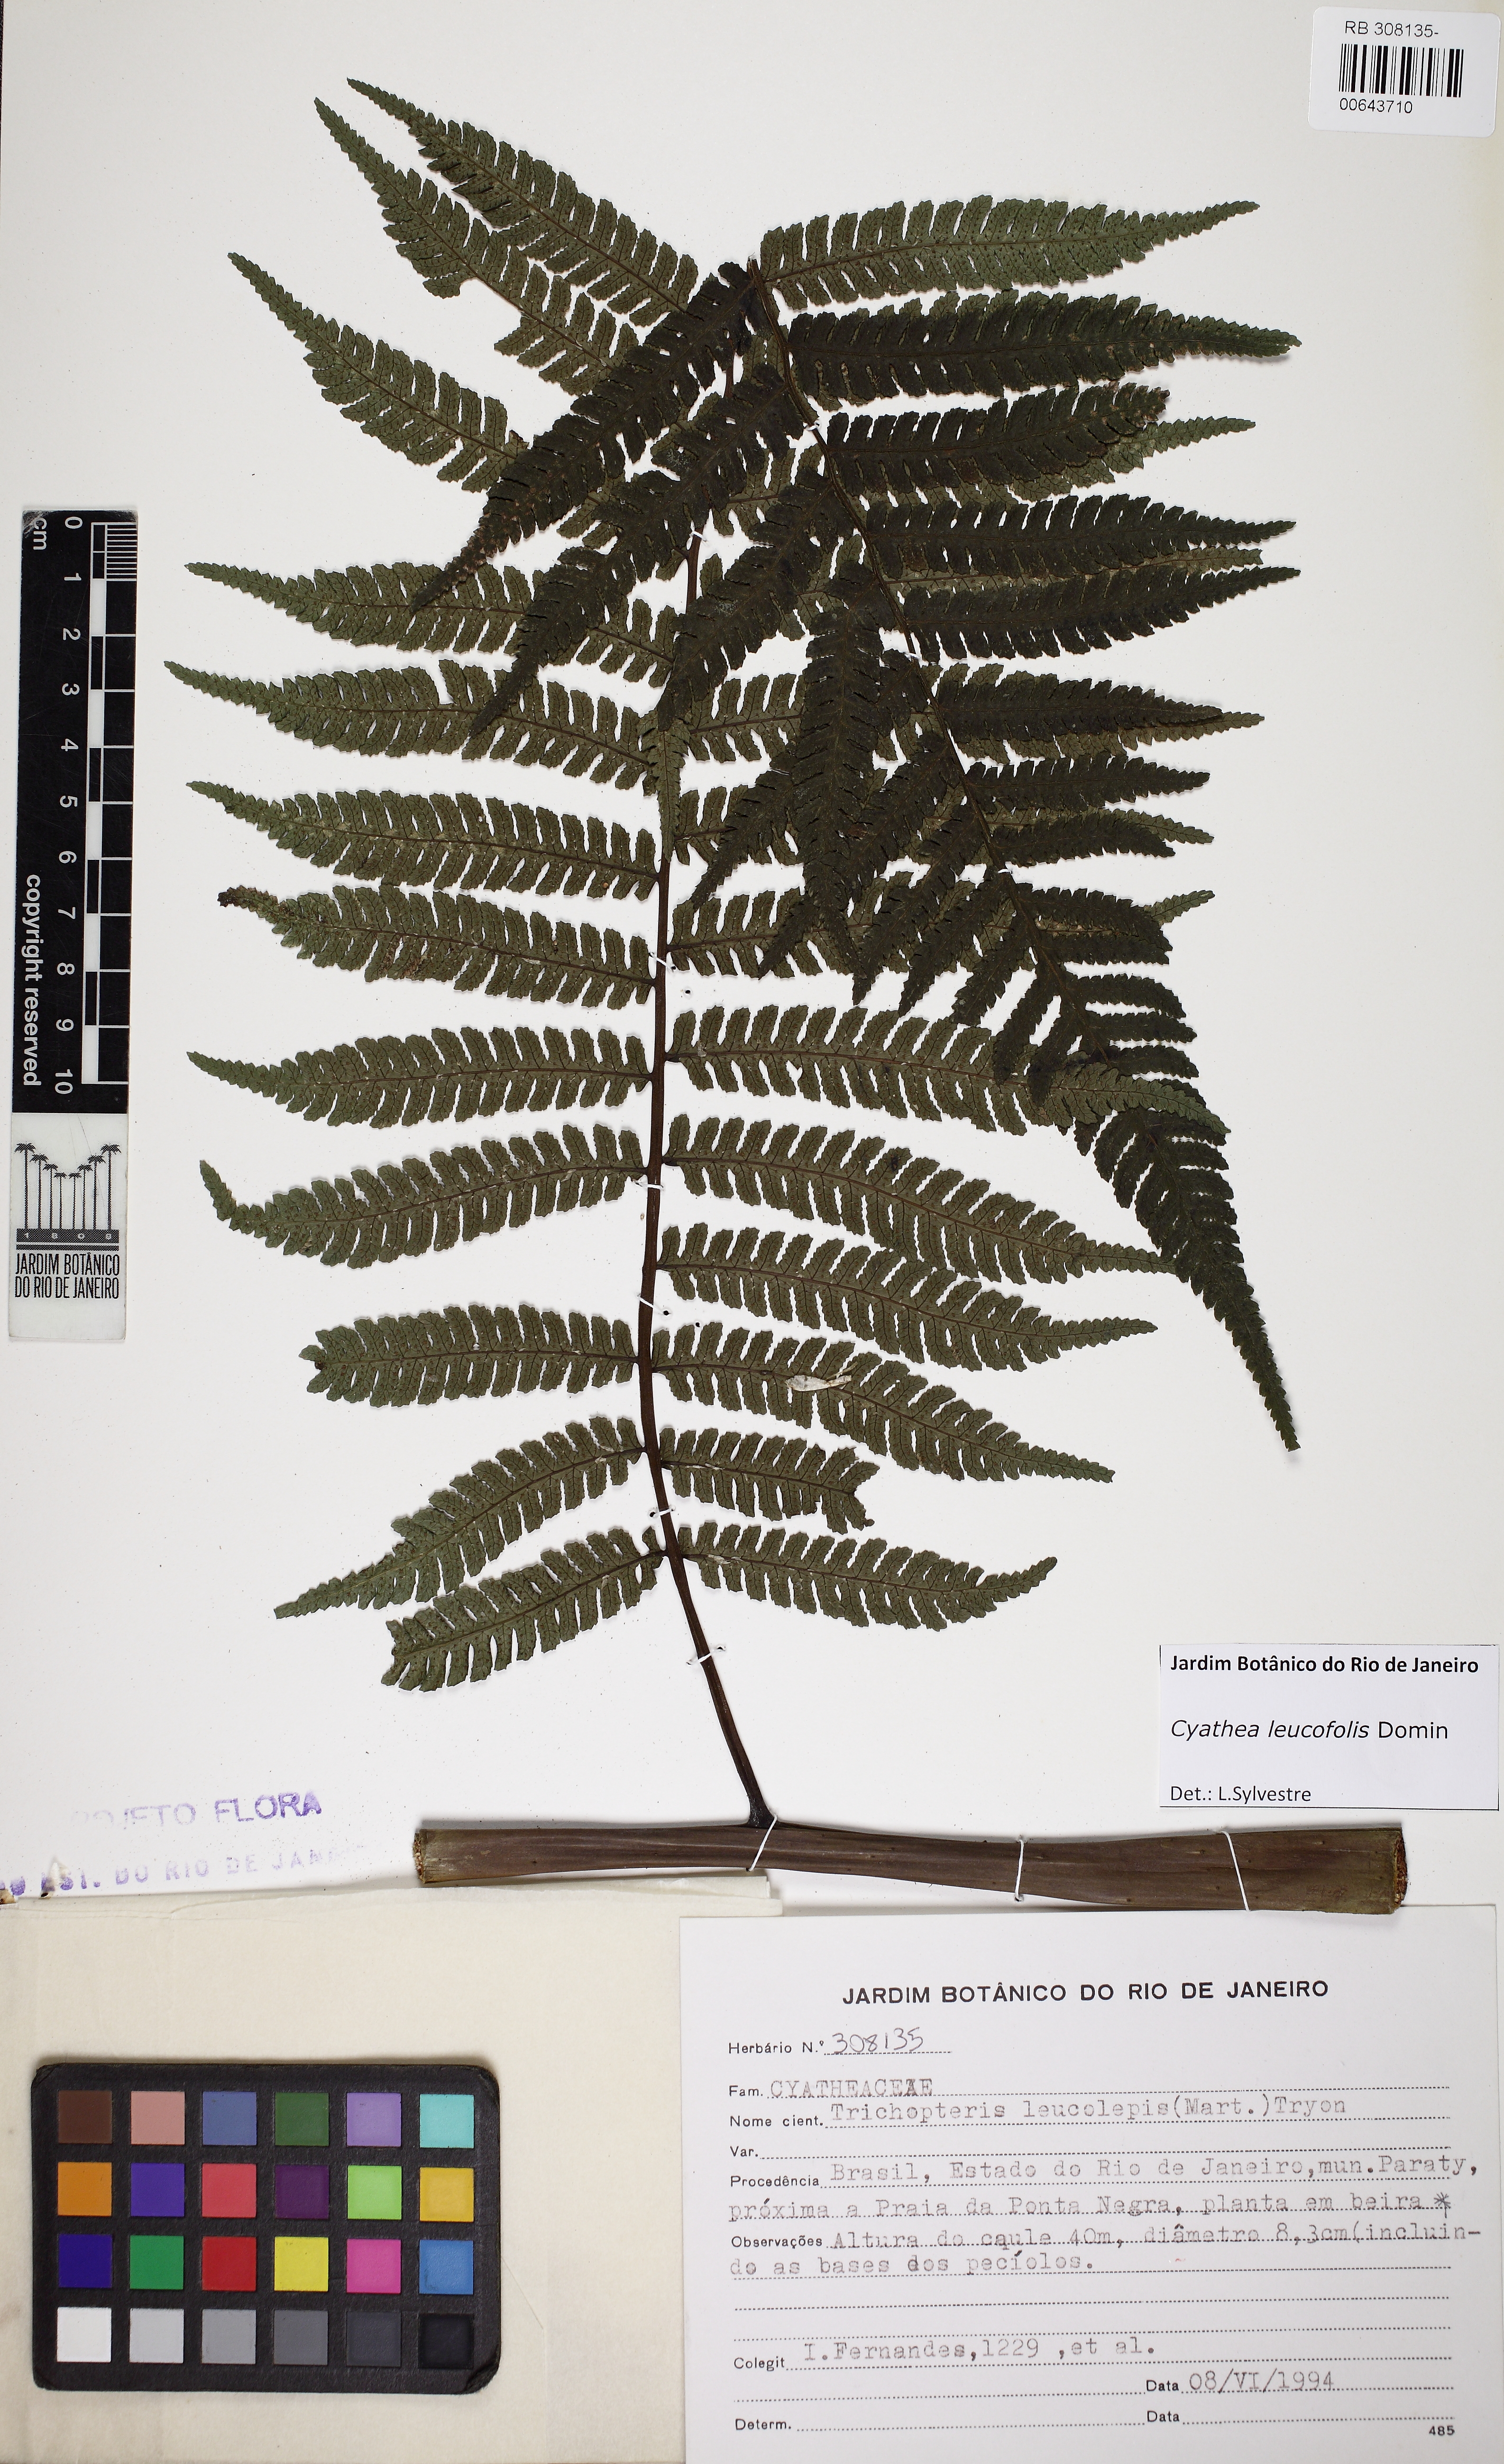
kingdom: Plantae
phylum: Tracheophyta
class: Polypodiopsida
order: Cyatheales
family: Cyatheaceae
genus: Cyathea
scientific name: Cyathea leucofolis
